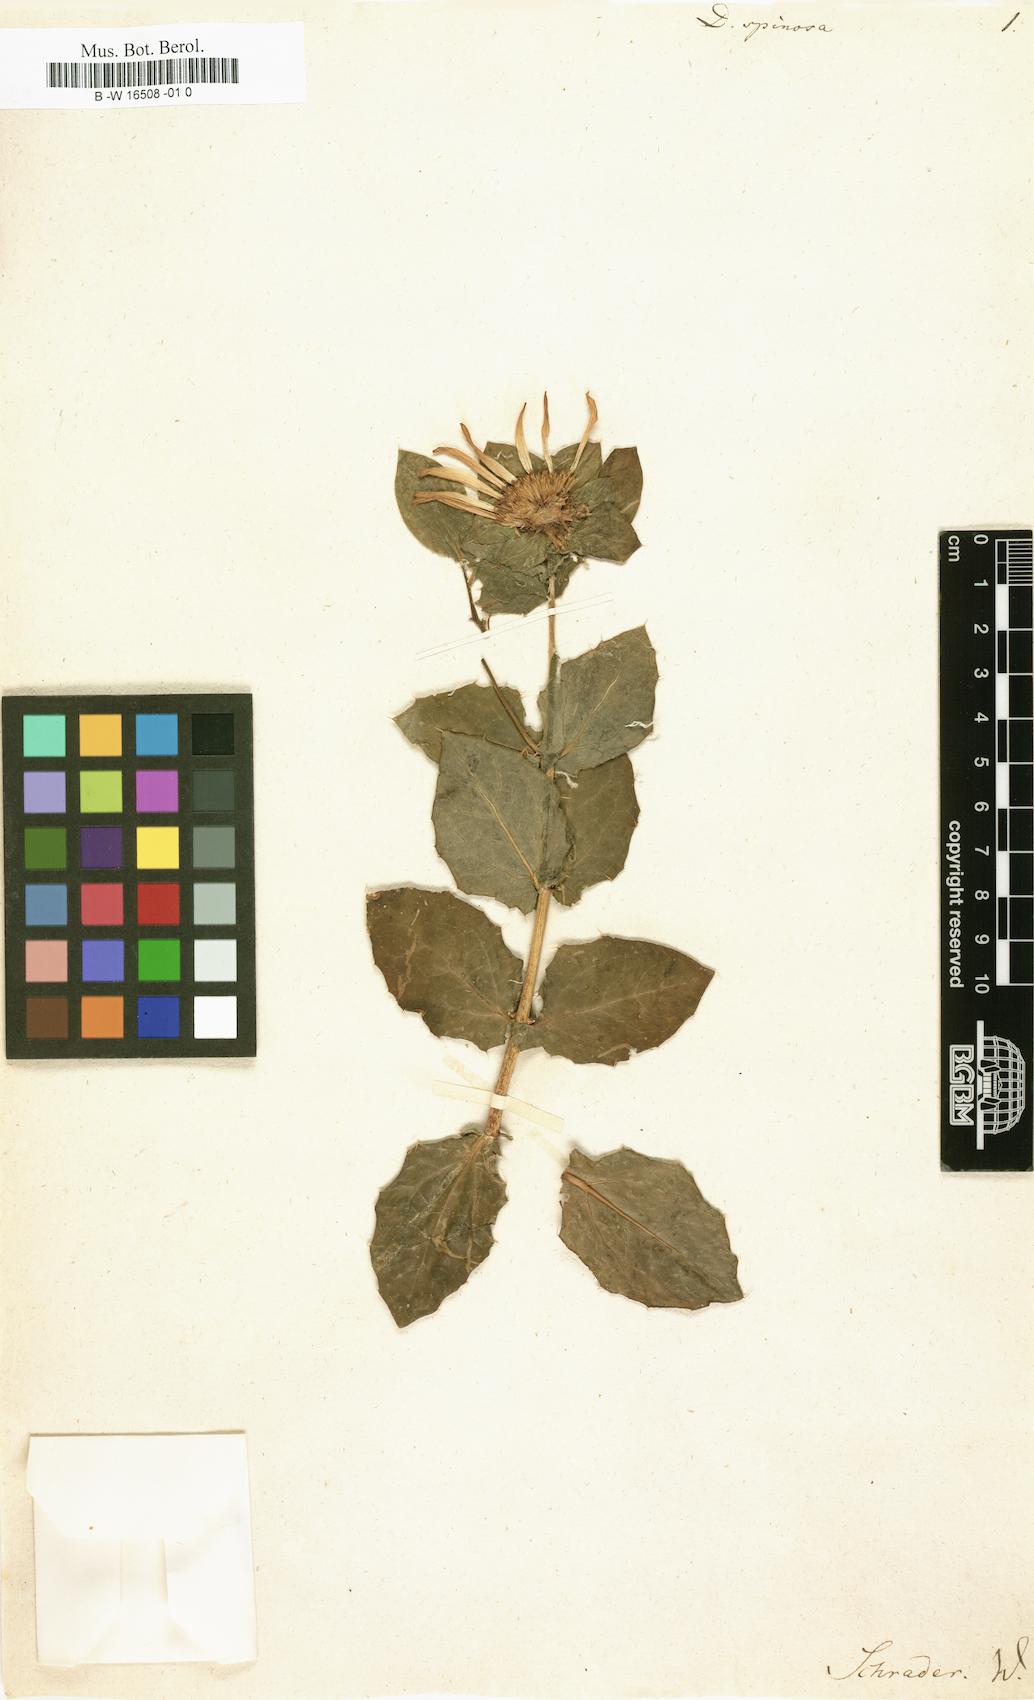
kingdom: Plantae
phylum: Tracheophyta
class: Magnoliopsida
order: Asterales
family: Asteraceae
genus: Didelta
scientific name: Didelta spinosa
